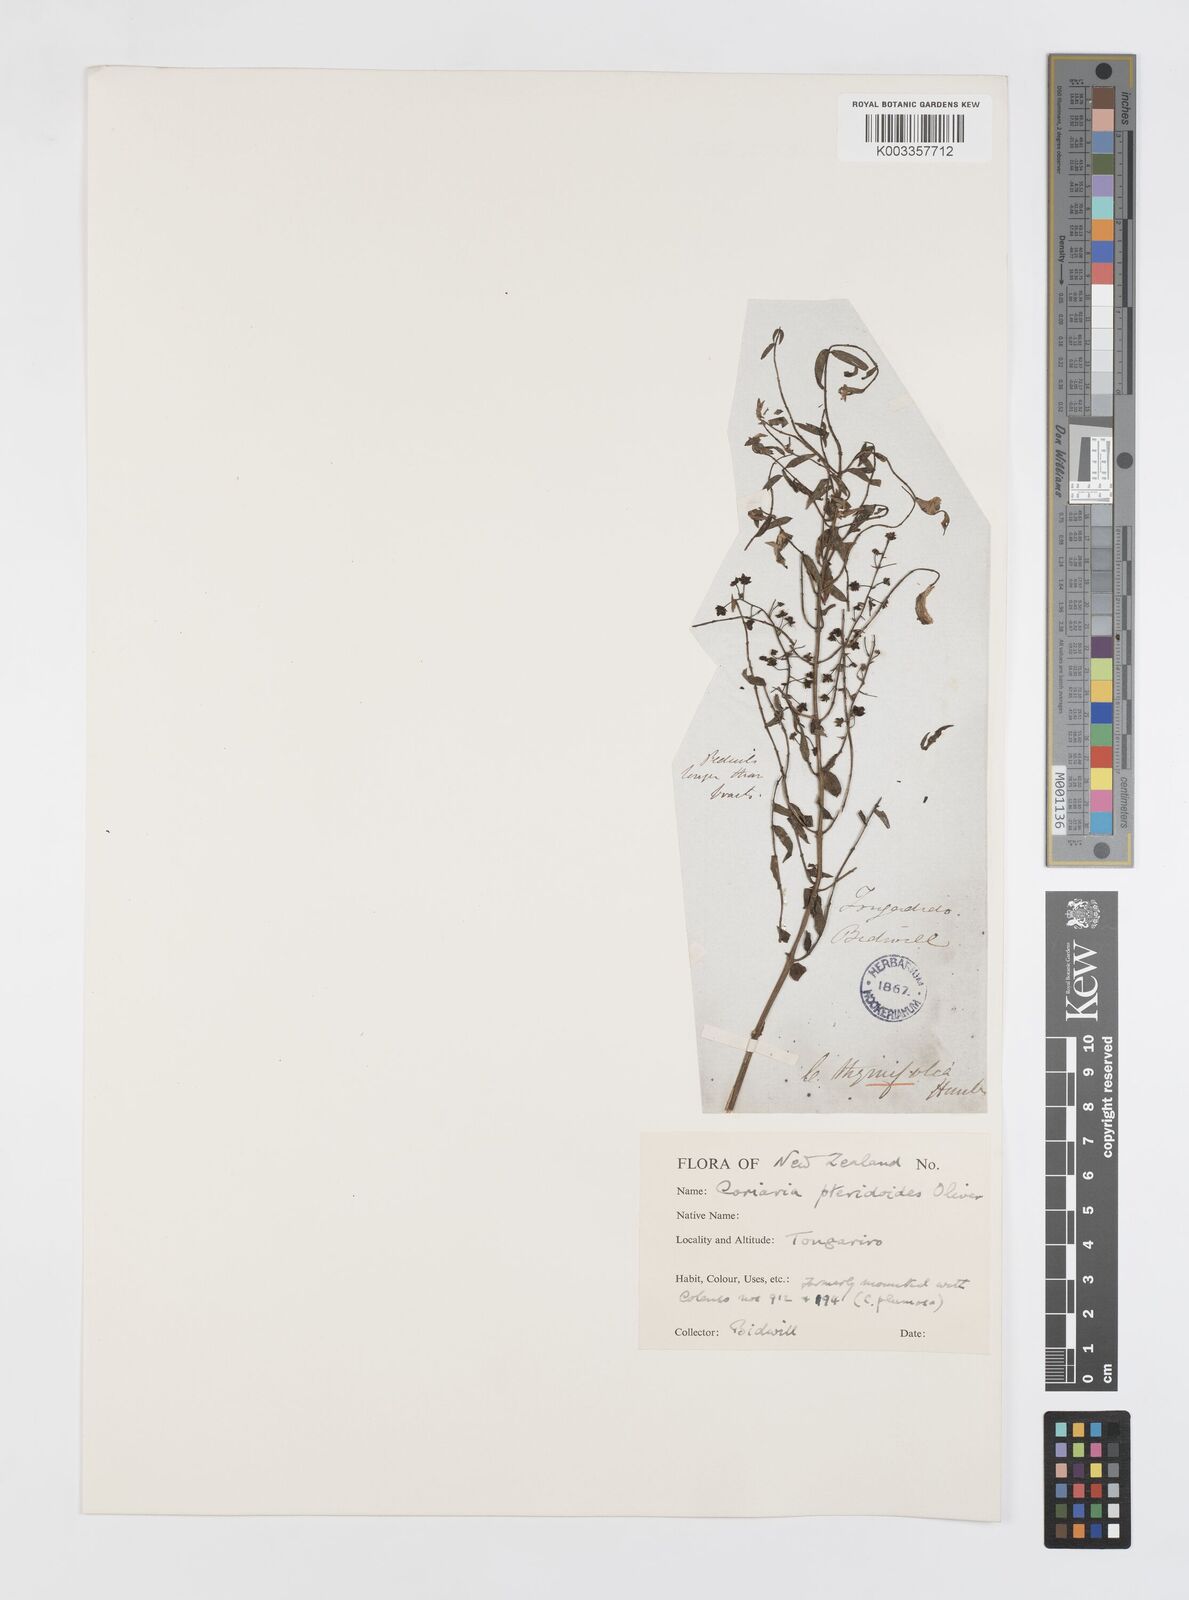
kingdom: Plantae
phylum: Tracheophyta
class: Magnoliopsida
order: Cucurbitales
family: Coriariaceae
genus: Coriaria
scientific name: Coriaria pteridoides
